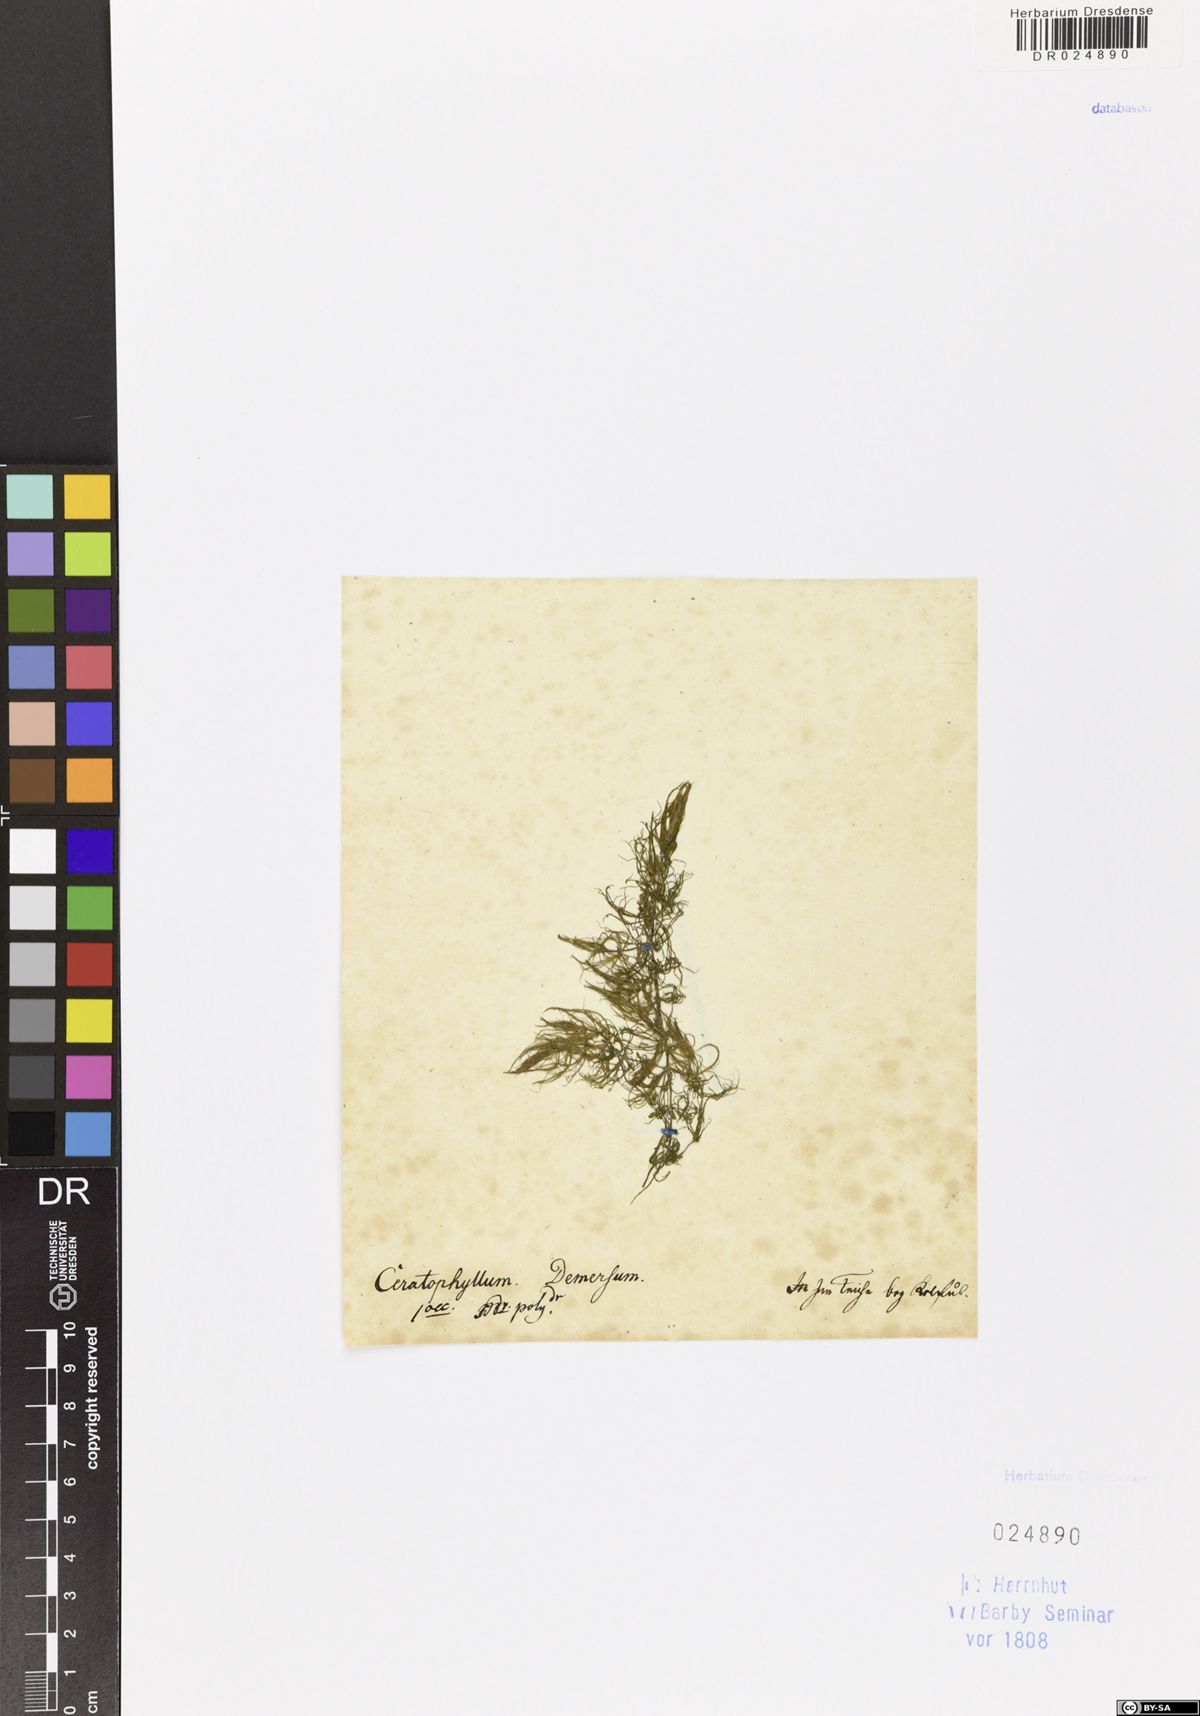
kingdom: Plantae
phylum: Tracheophyta
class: Magnoliopsida
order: Ceratophyllales
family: Ceratophyllaceae
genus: Ceratophyllum
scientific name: Ceratophyllum submersum
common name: Soft hornwort
